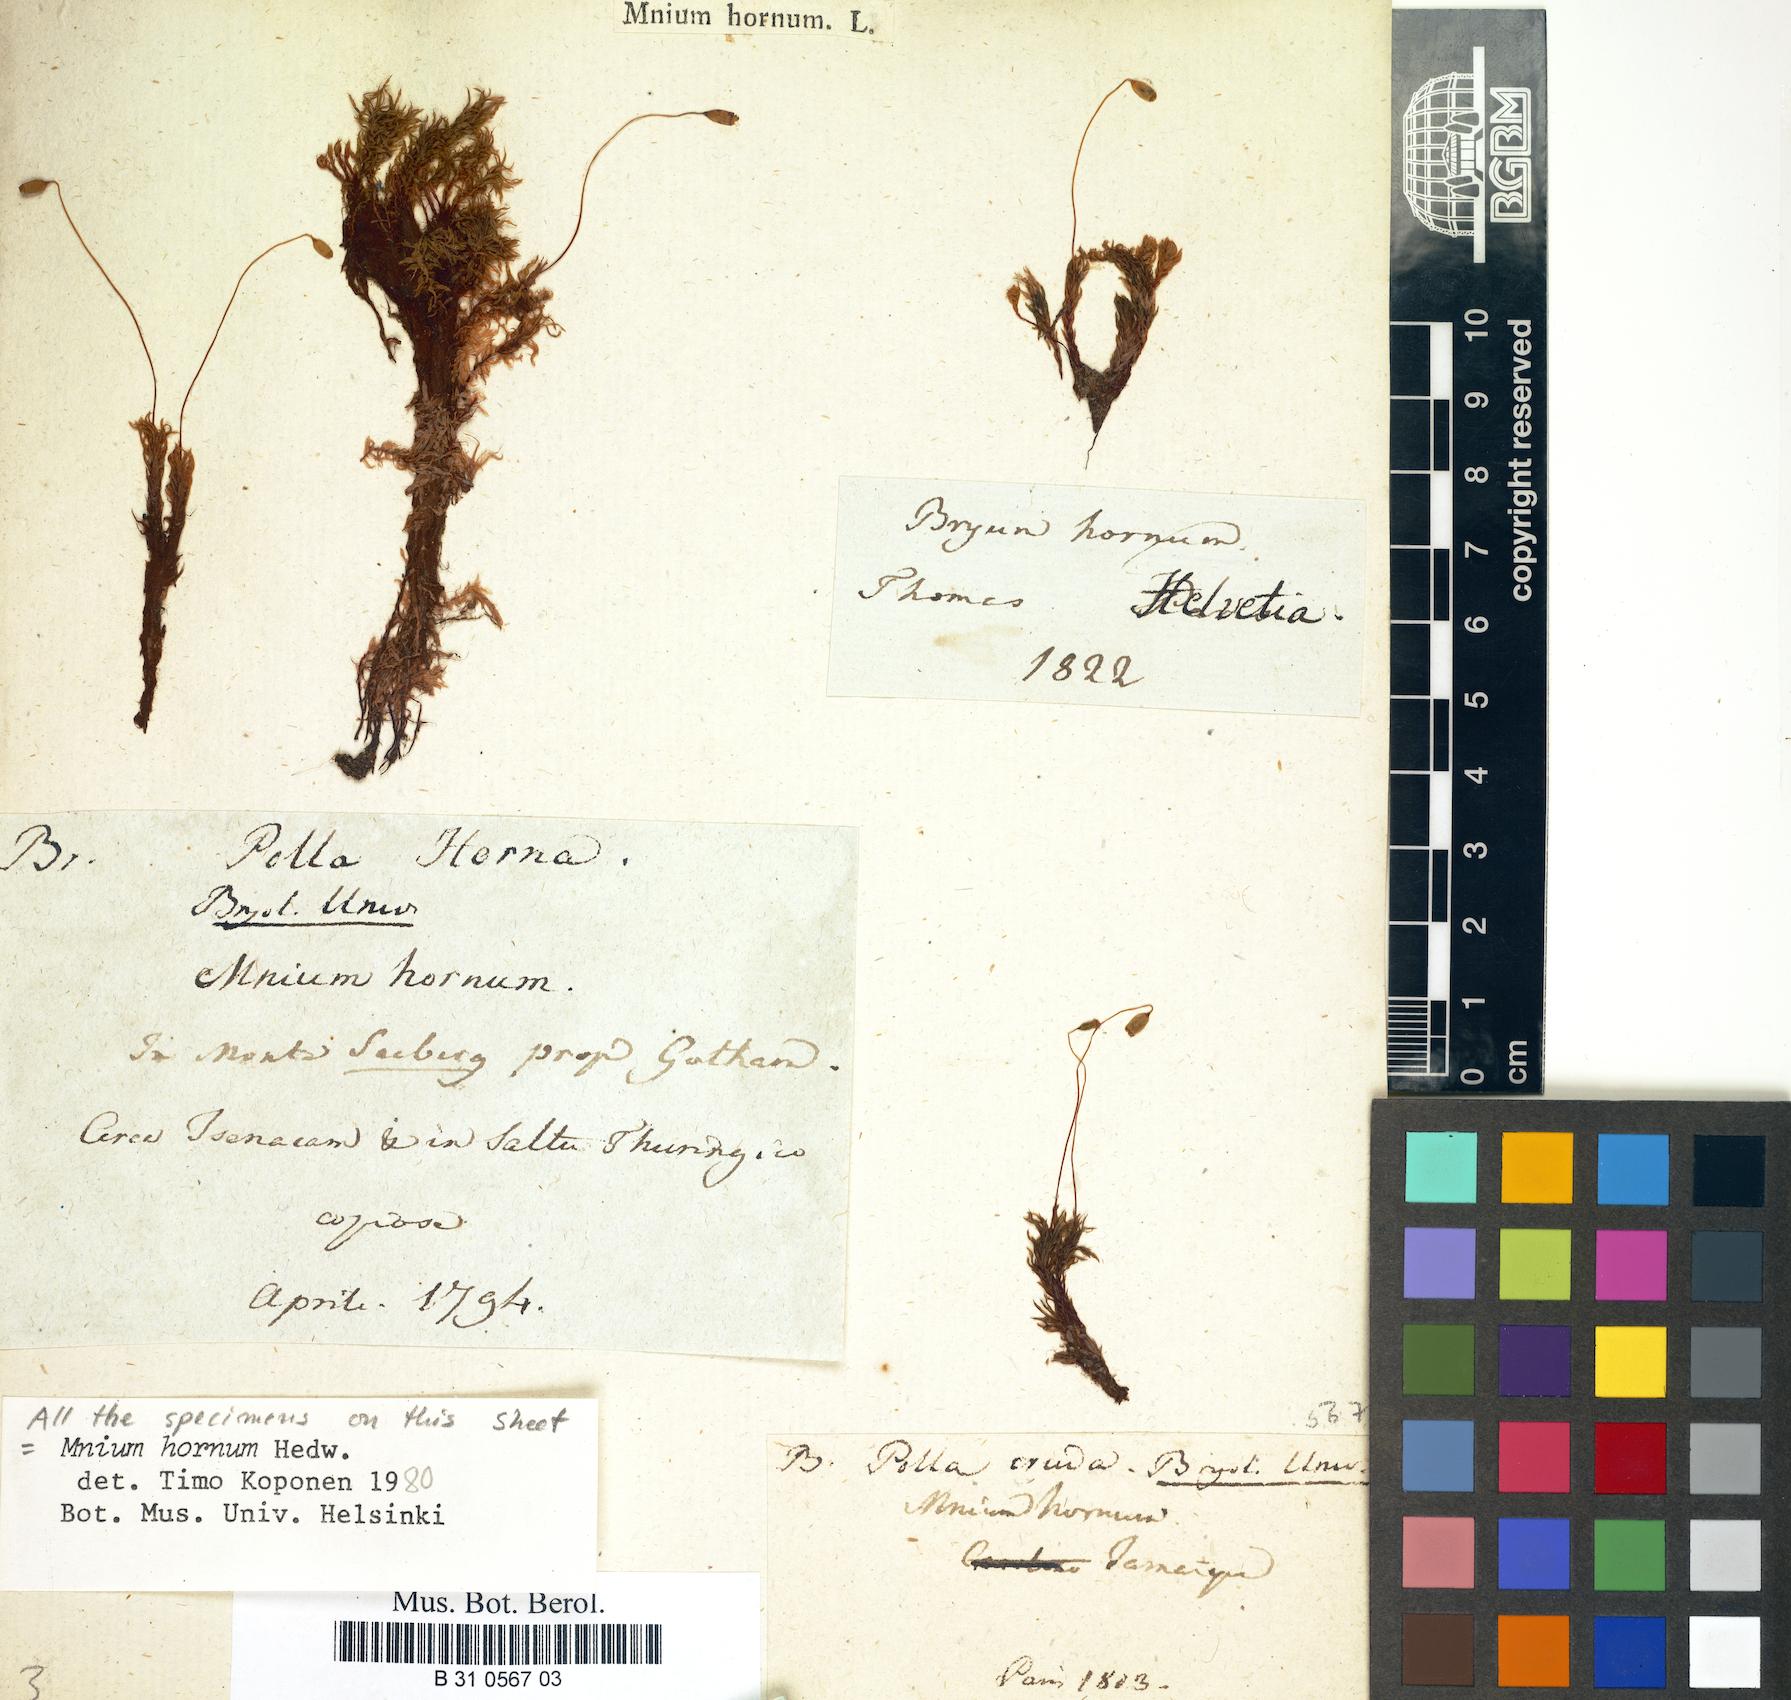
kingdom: Plantae
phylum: Bryophyta
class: Bryopsida
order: Bryales
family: Mniaceae
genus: Mnium
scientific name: Mnium hornum
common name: Swan's-neck leafy moss
